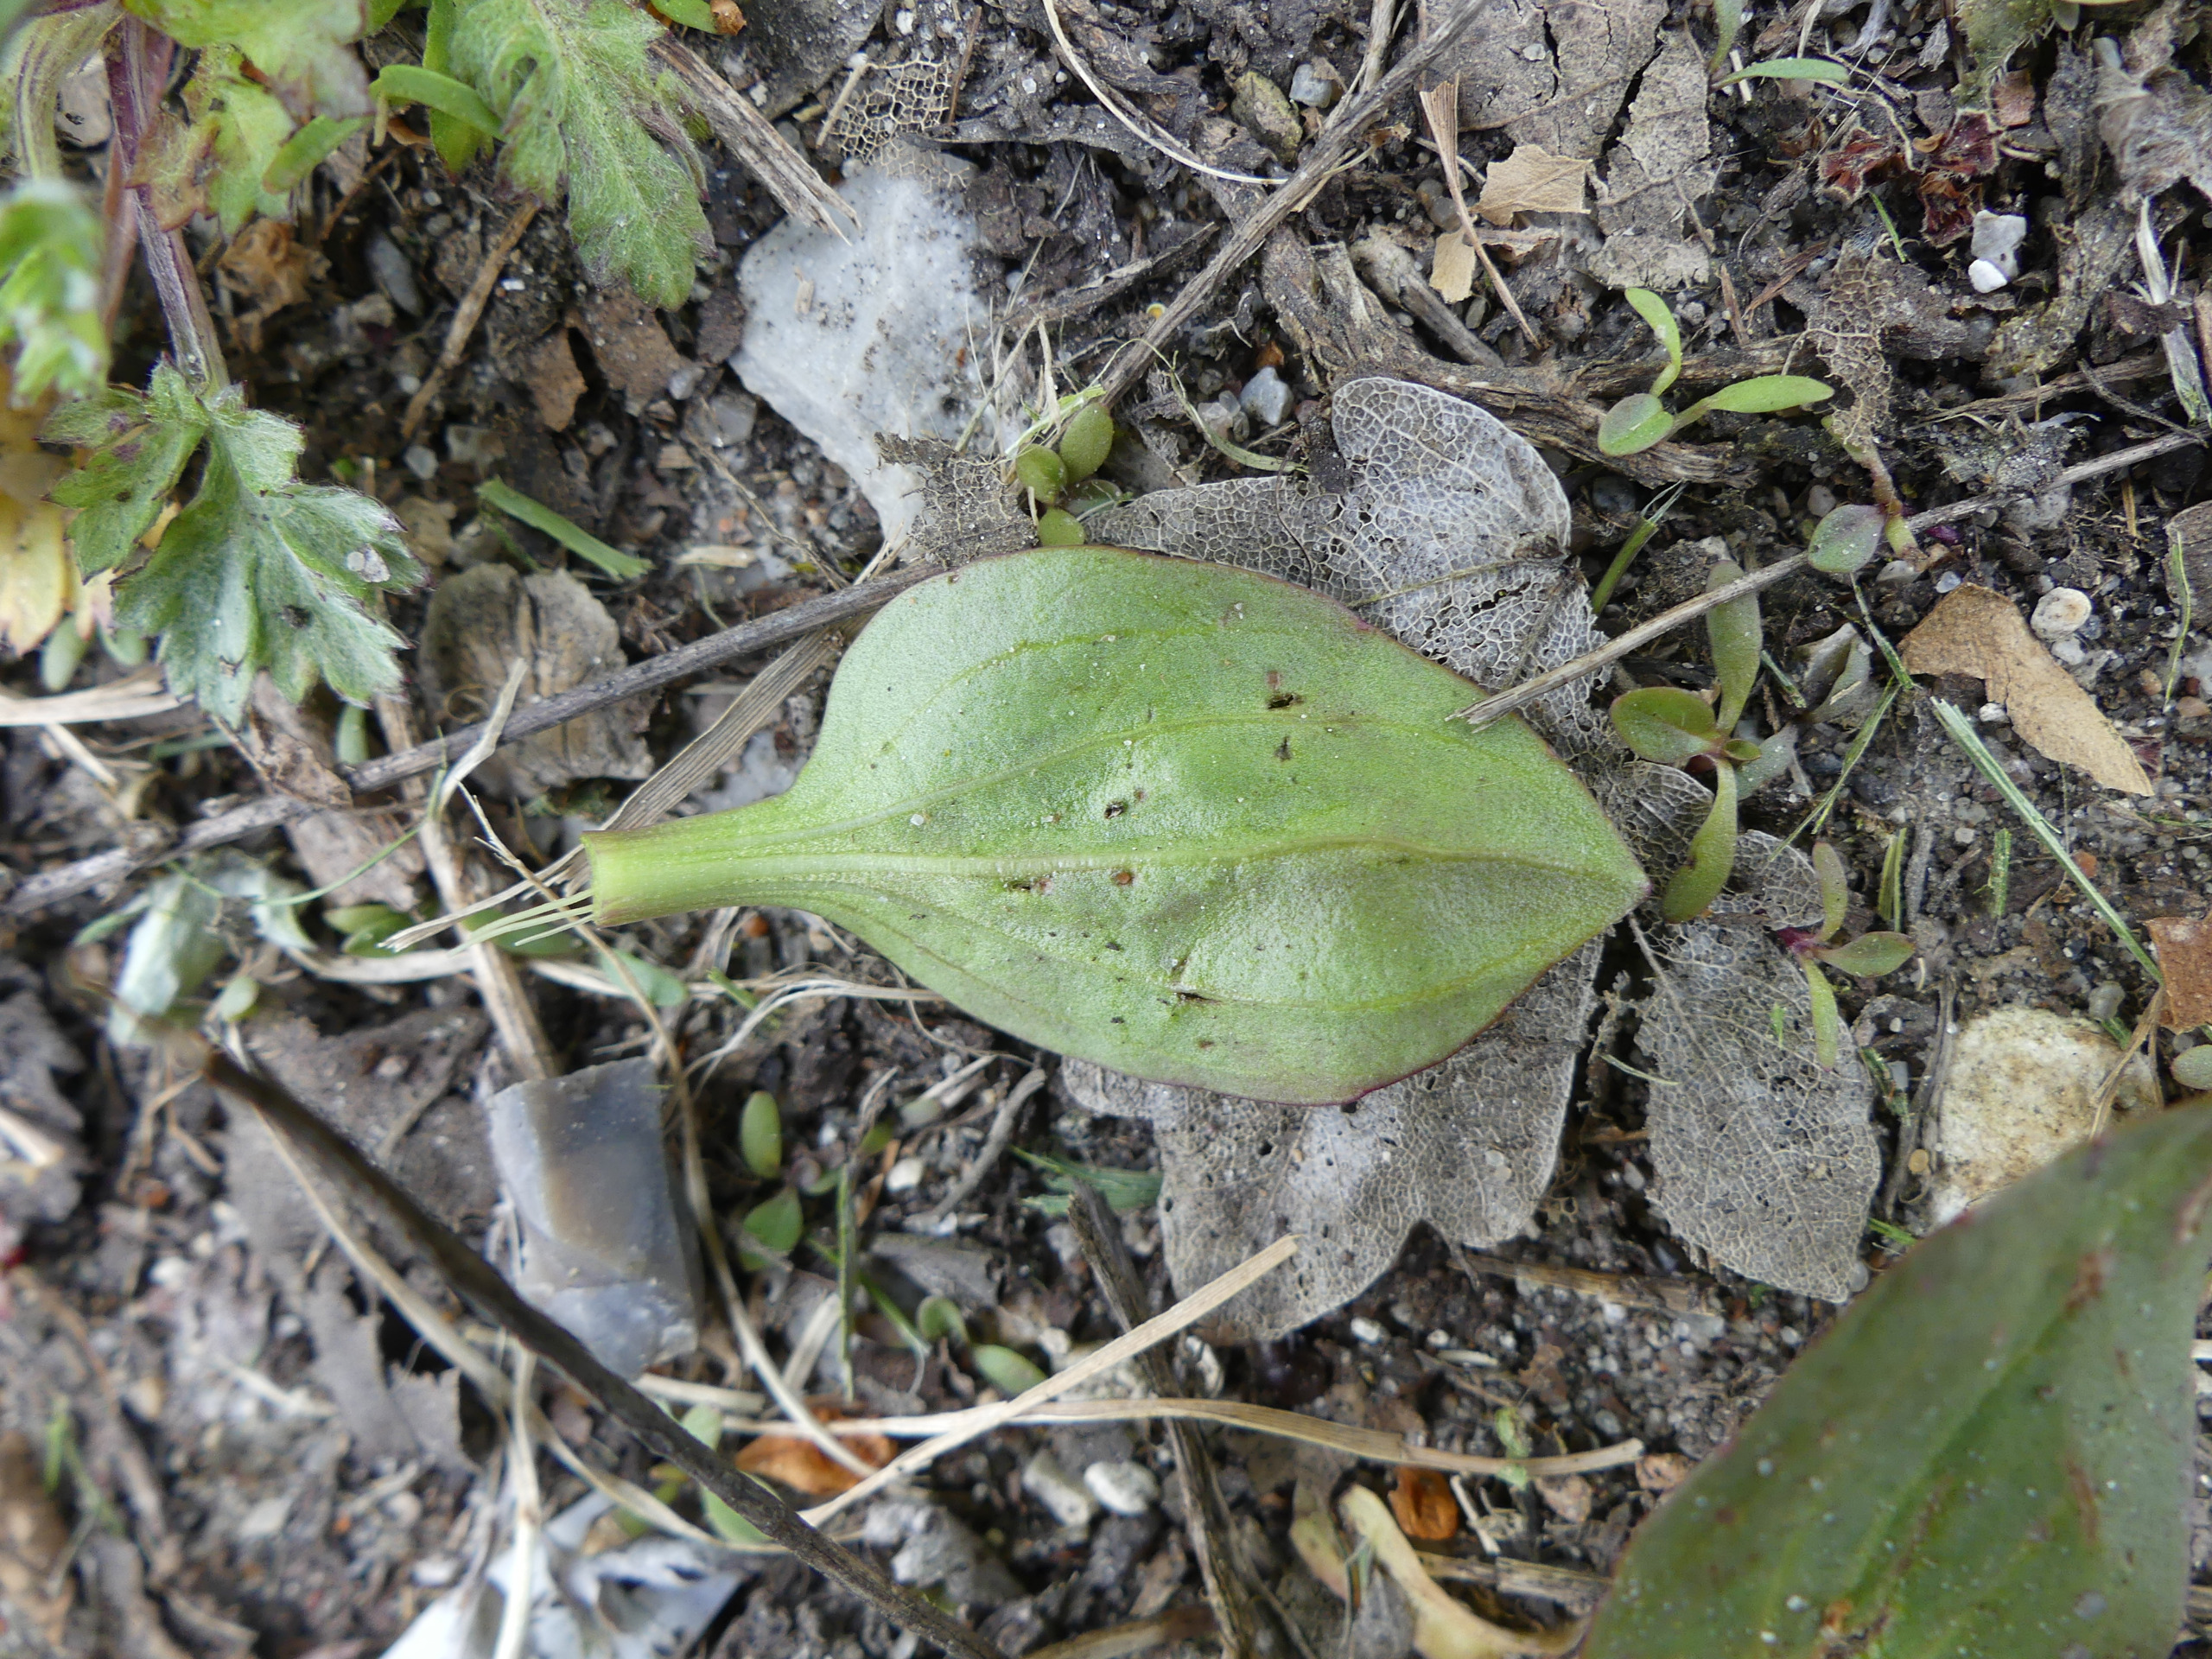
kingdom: Plantae
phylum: Tracheophyta
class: Magnoliopsida
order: Lamiales
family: Plantaginaceae
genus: Plantago
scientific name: Plantago major
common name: Glat vejbred
